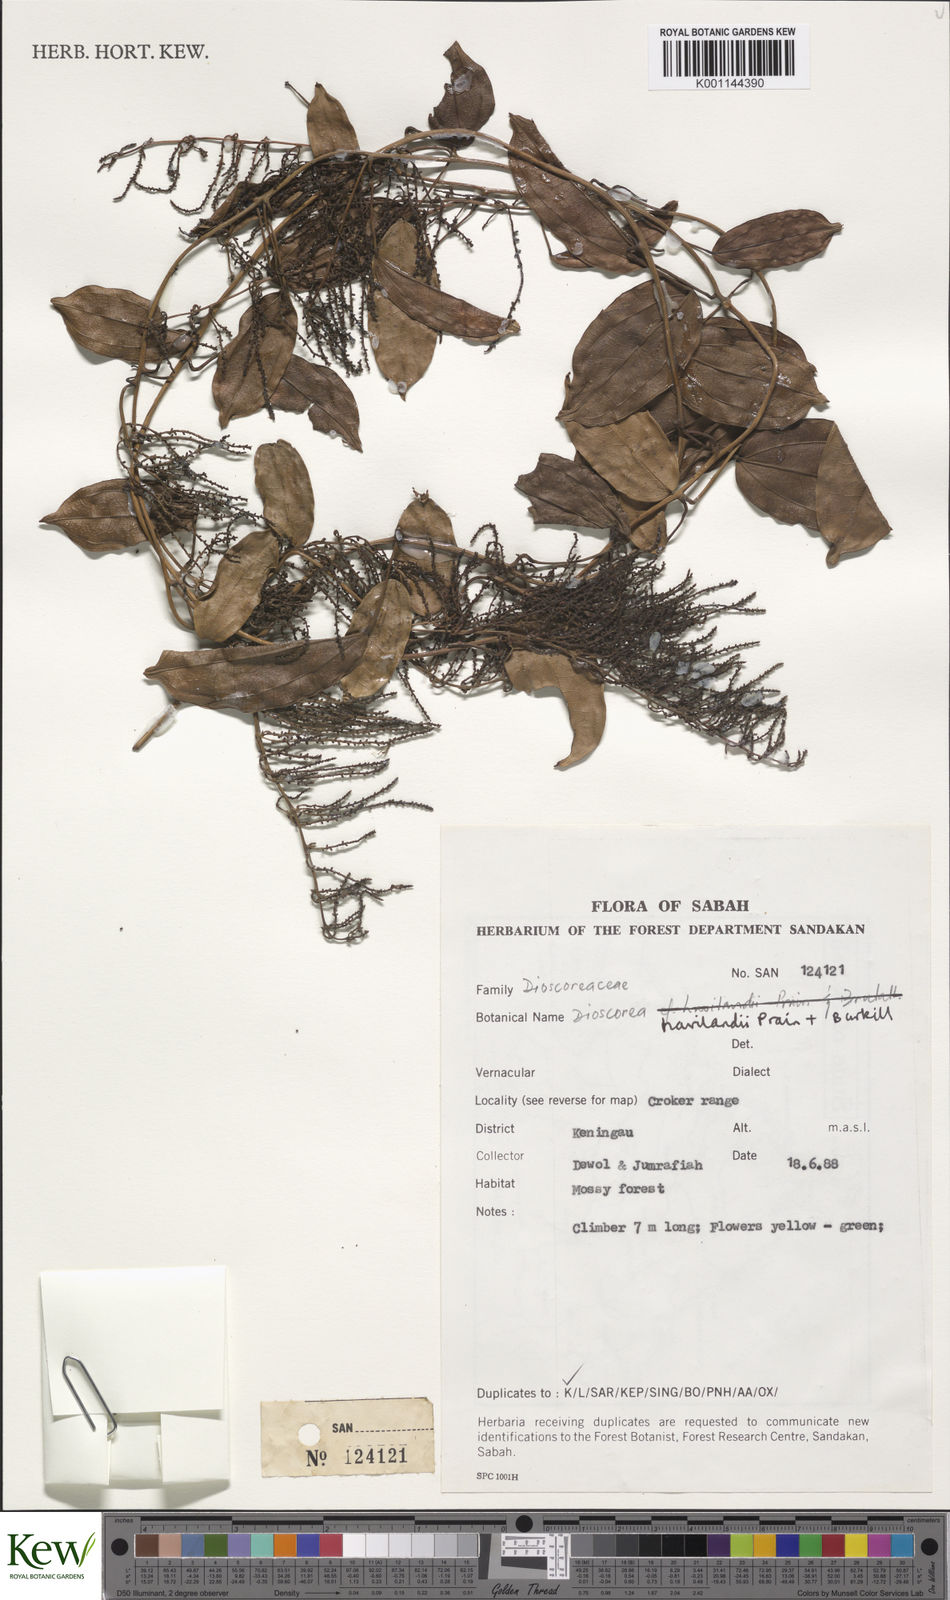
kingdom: Plantae
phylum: Tracheophyta
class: Liliopsida
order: Dioscoreales
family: Dioscoreaceae
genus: Dioscorea
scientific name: Dioscorea havilandii
